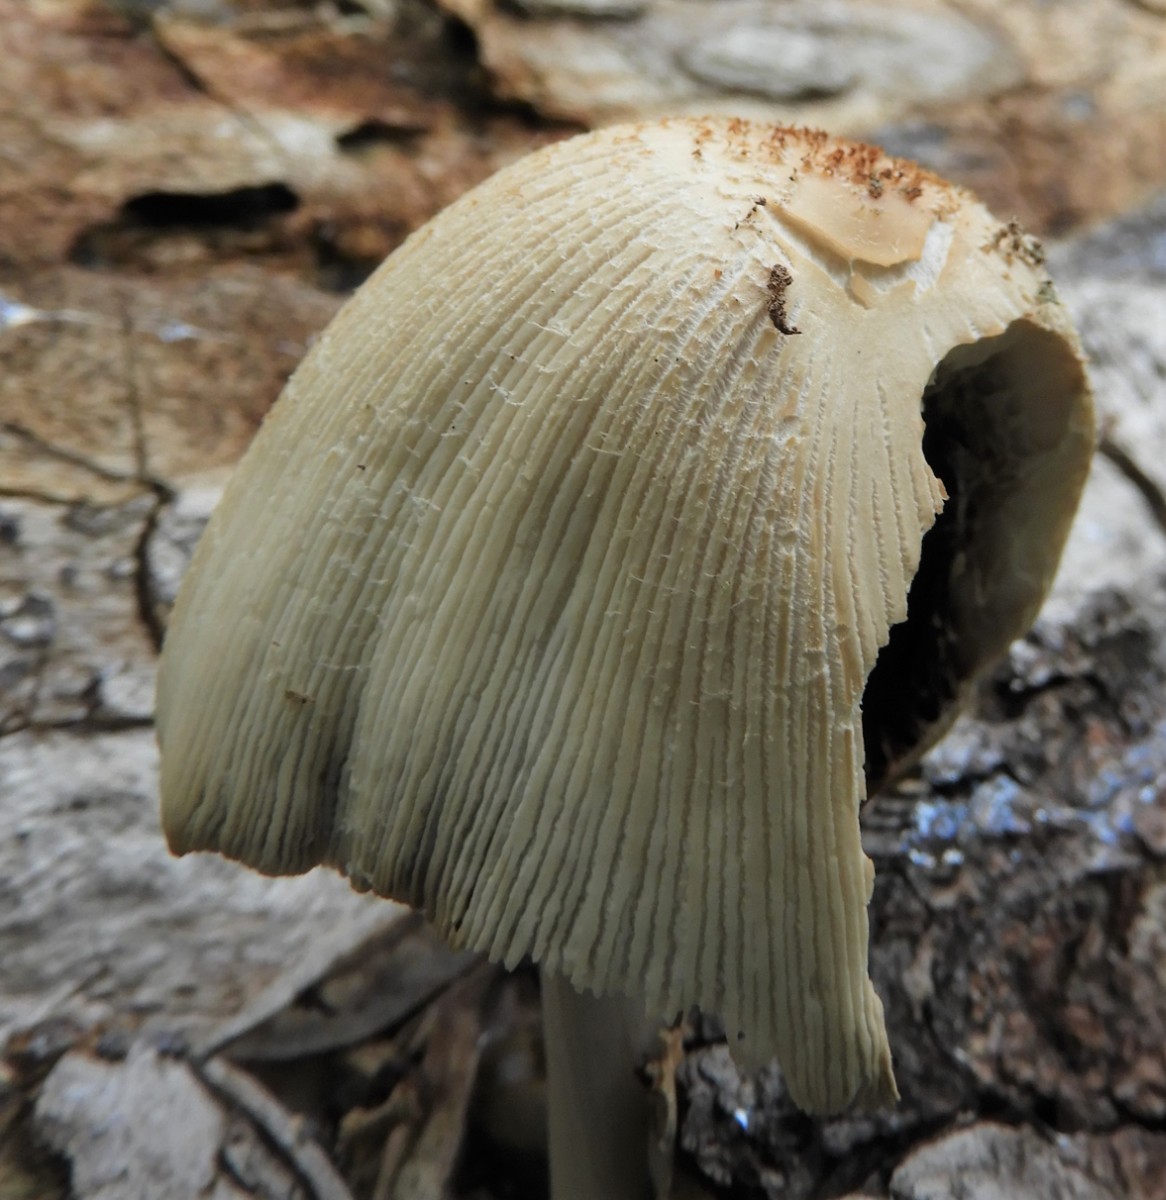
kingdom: Fungi
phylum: Basidiomycota
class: Agaricomycetes
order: Agaricales
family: Psathyrellaceae
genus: Coprinellus
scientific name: Coprinellus
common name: blækhat
